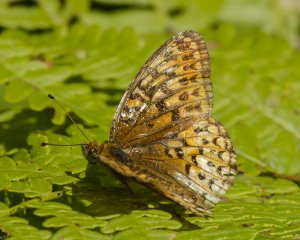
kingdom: Animalia
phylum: Arthropoda
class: Insecta
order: Lepidoptera
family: Nymphalidae
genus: Speyeria
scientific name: Speyeria atlantis
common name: Atlantis Fritillary
